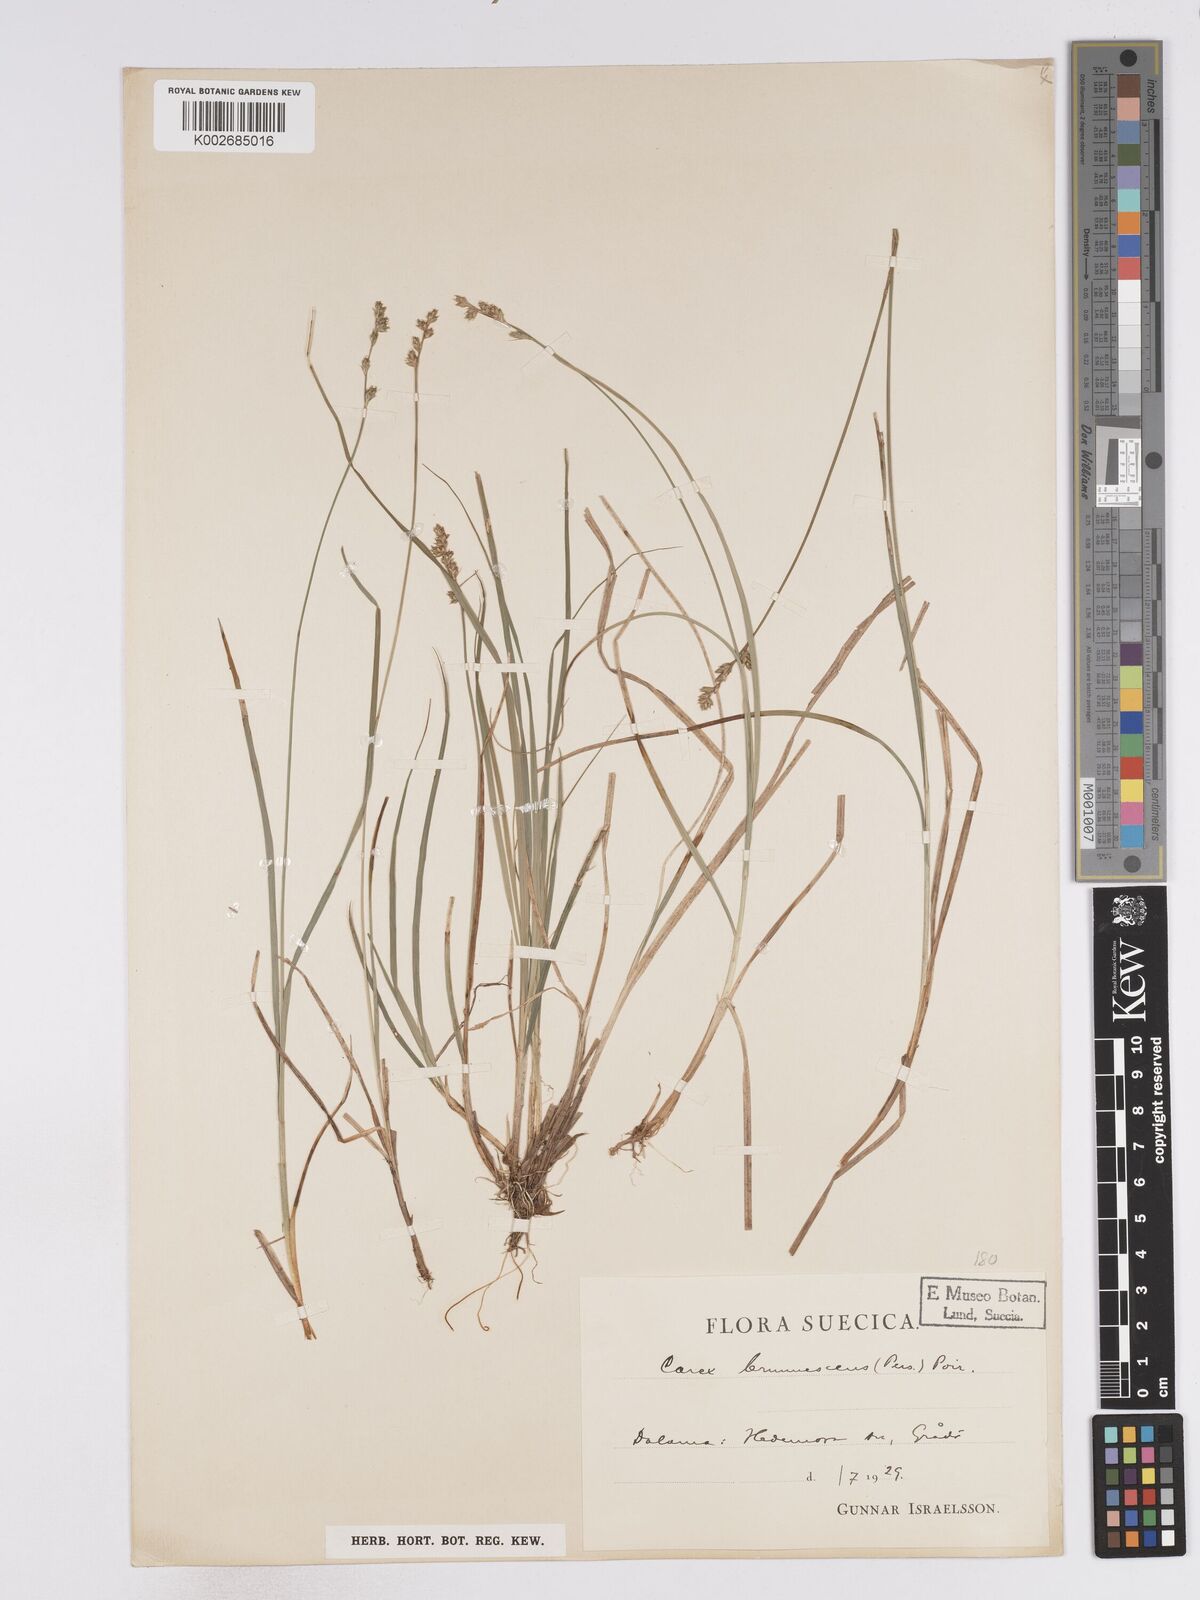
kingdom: Plantae
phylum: Tracheophyta
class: Liliopsida
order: Poales
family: Cyperaceae
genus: Carex
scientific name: Carex brunnescens
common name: Brown sedge
